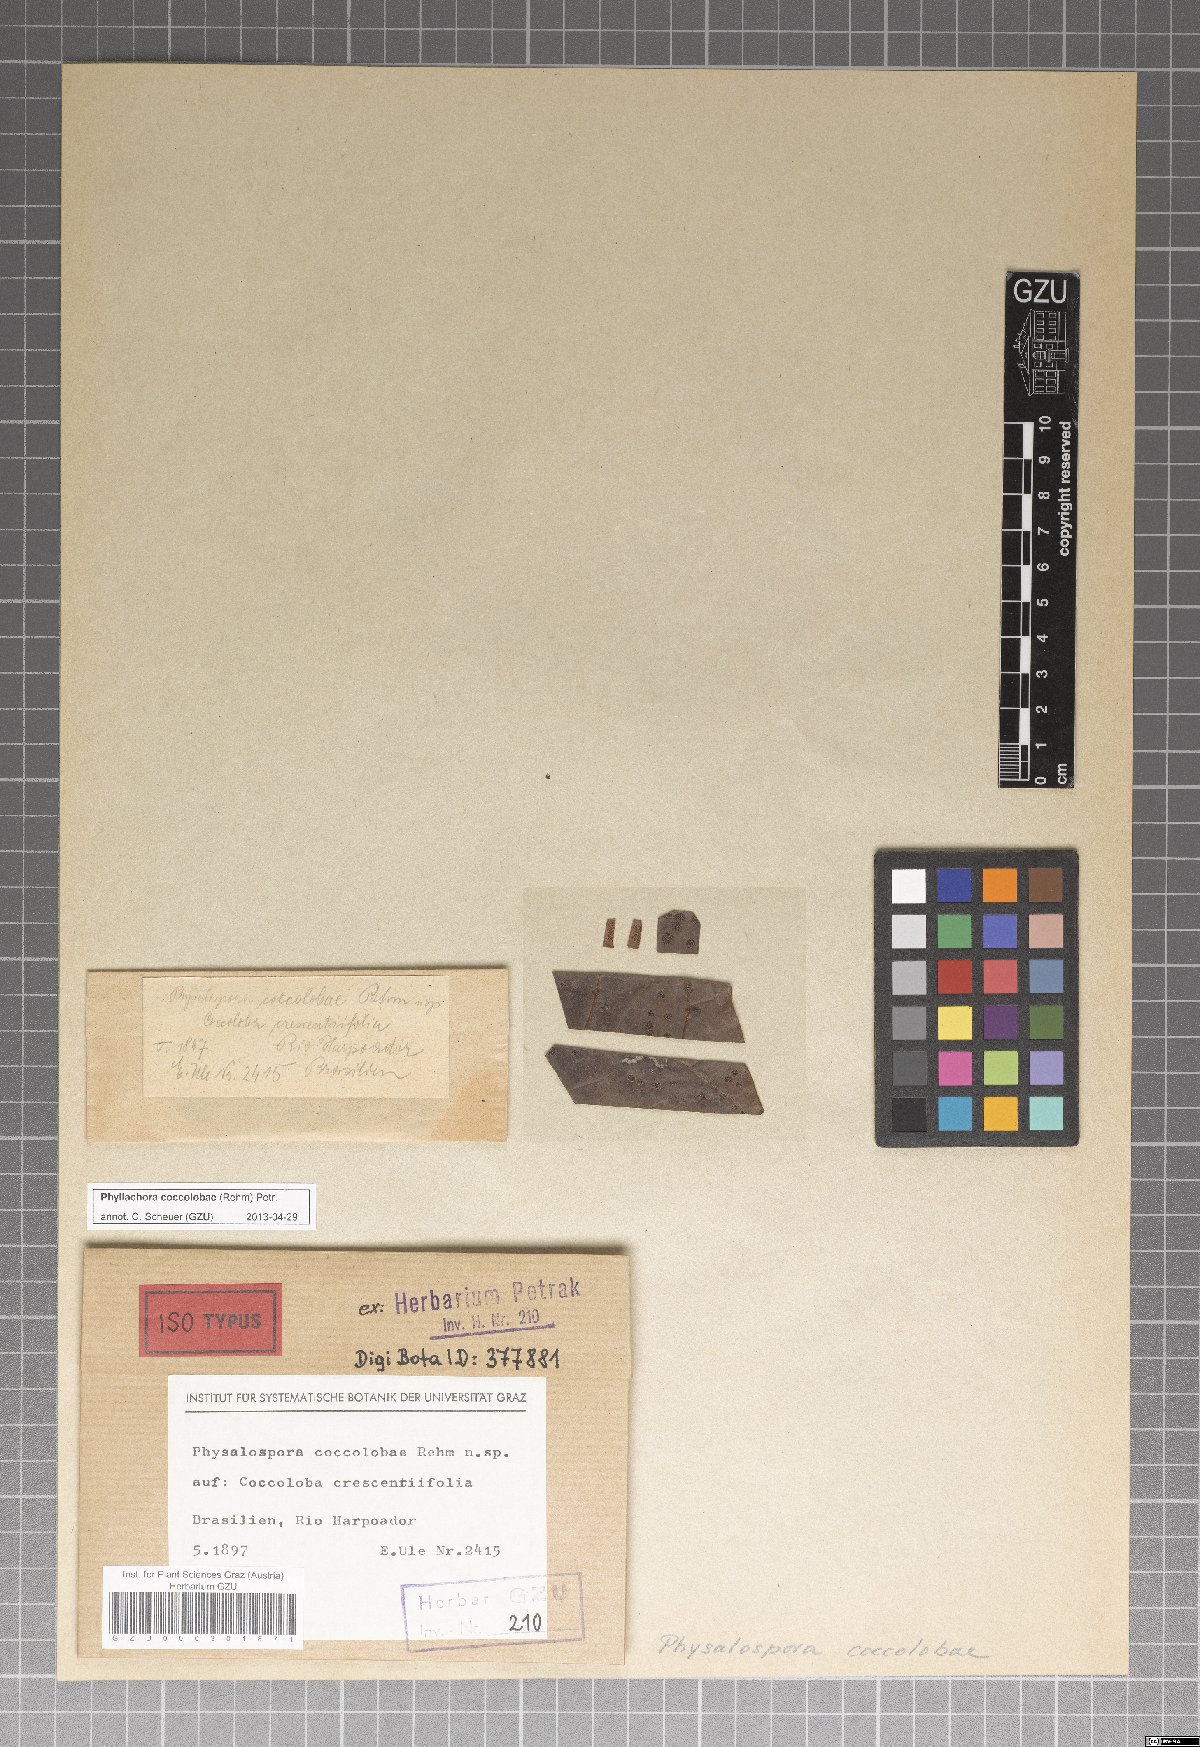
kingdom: Fungi
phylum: Ascomycota
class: Sordariomycetes
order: Phyllachorales
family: Phyllachoraceae
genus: Phyllachora
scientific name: Phyllachora coccolobae
